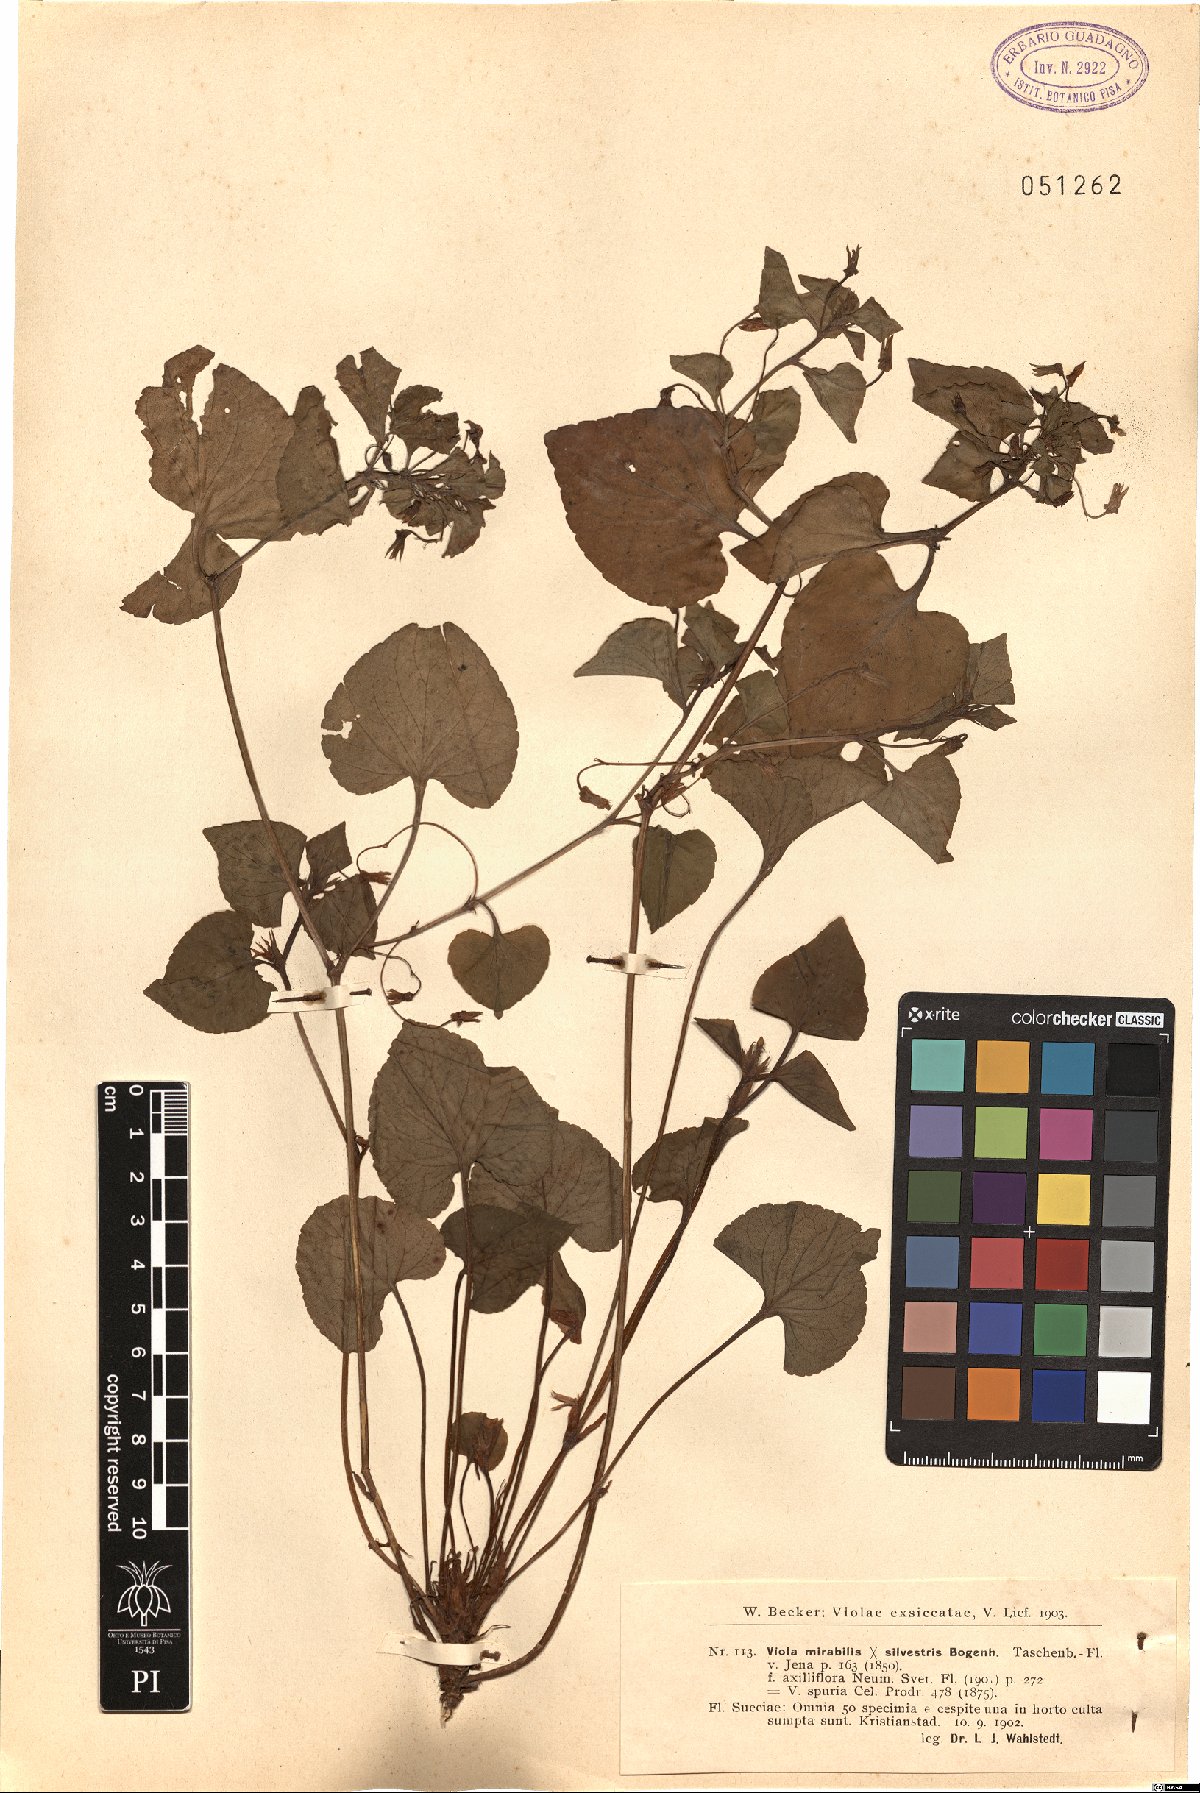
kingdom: Plantae
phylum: Tracheophyta
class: Magnoliopsida
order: Malpighiales
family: Violaceae
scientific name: Violaceae
